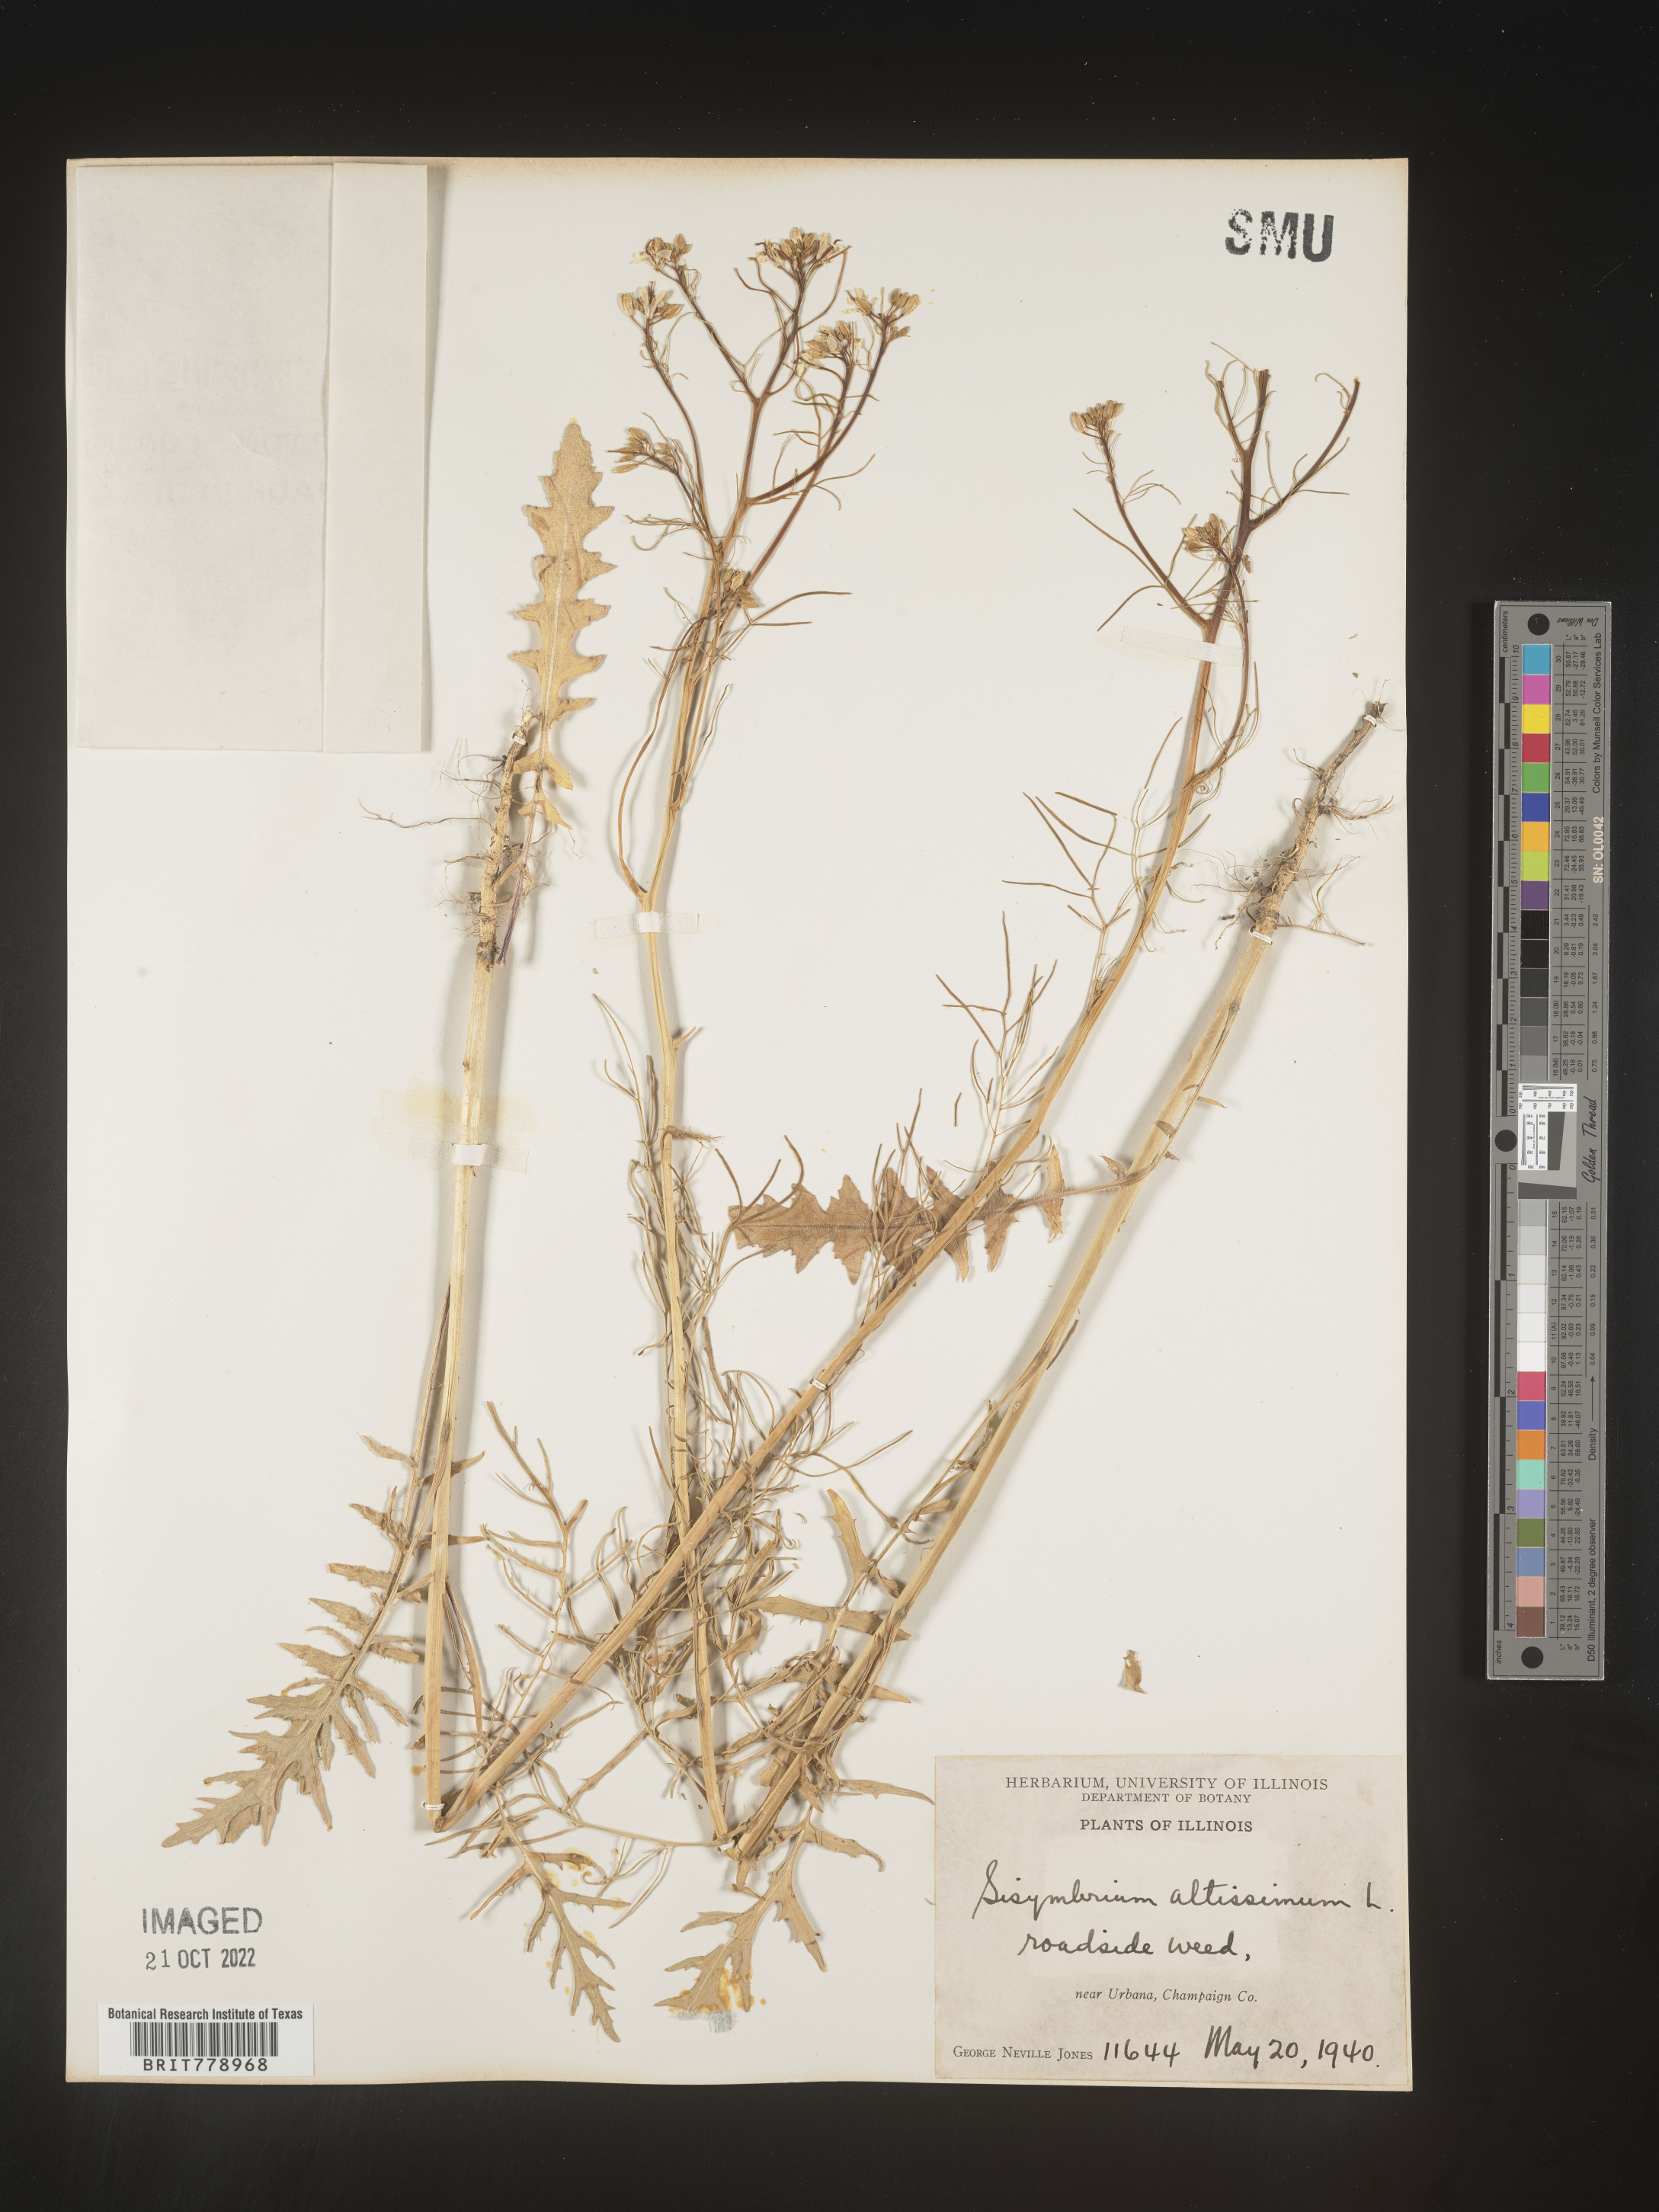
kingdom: Plantae
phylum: Tracheophyta
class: Magnoliopsida
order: Brassicales
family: Brassicaceae
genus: Sisymbrium
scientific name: Sisymbrium altissimum
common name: Tall rocket
